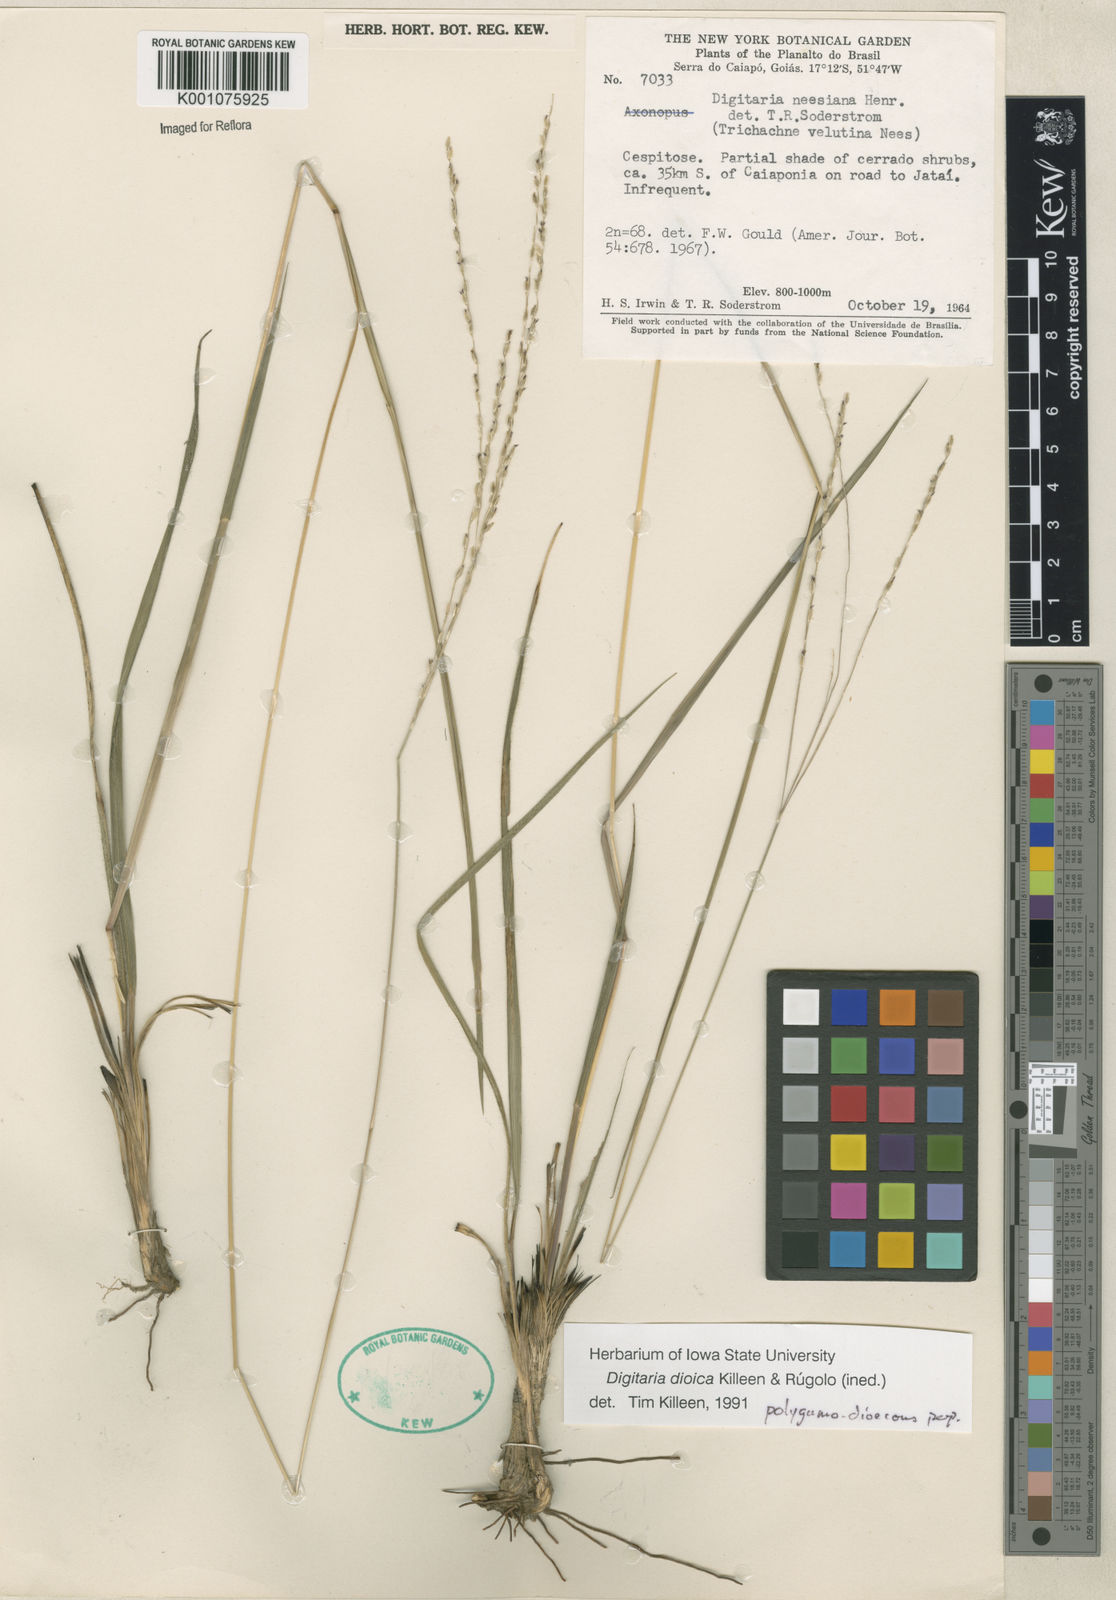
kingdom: Plantae
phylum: Tracheophyta
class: Liliopsida
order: Poales
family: Poaceae
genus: Digitaria
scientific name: Digitaria
